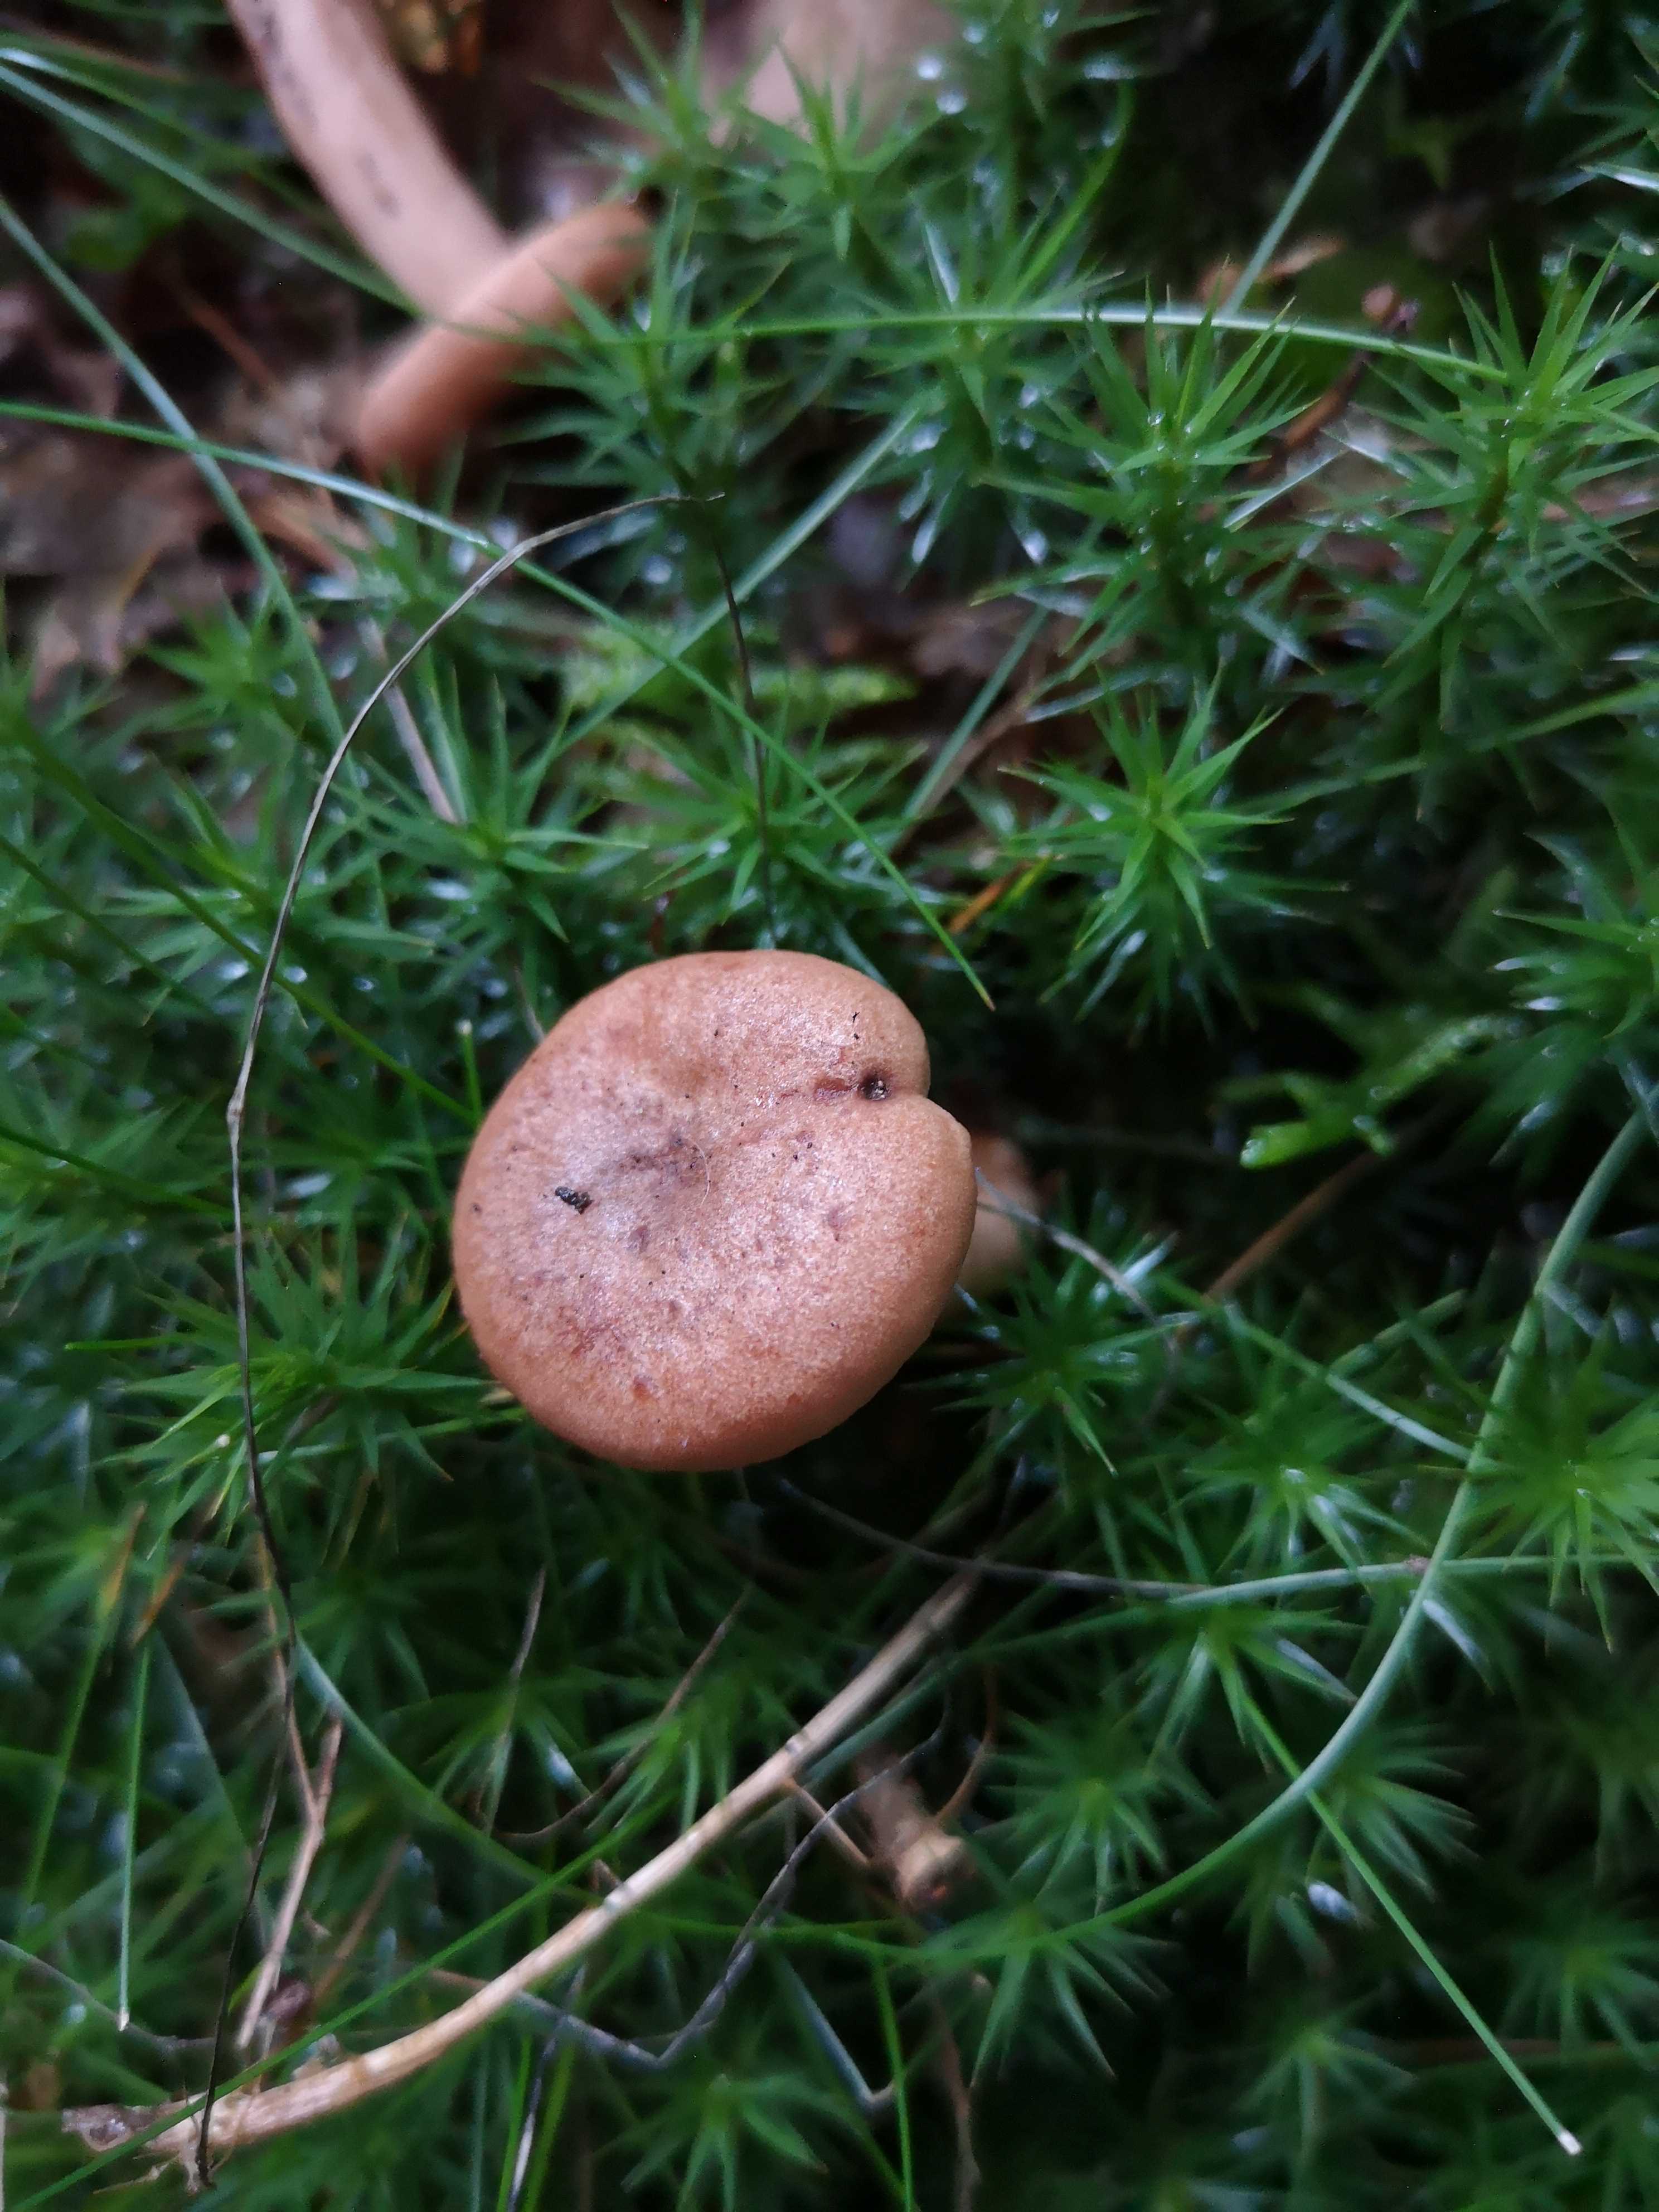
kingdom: Fungi
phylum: Basidiomycota
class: Agaricomycetes
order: Russulales
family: Russulaceae
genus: Lactarius
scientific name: Lactarius quietus
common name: ege-mælkehat
